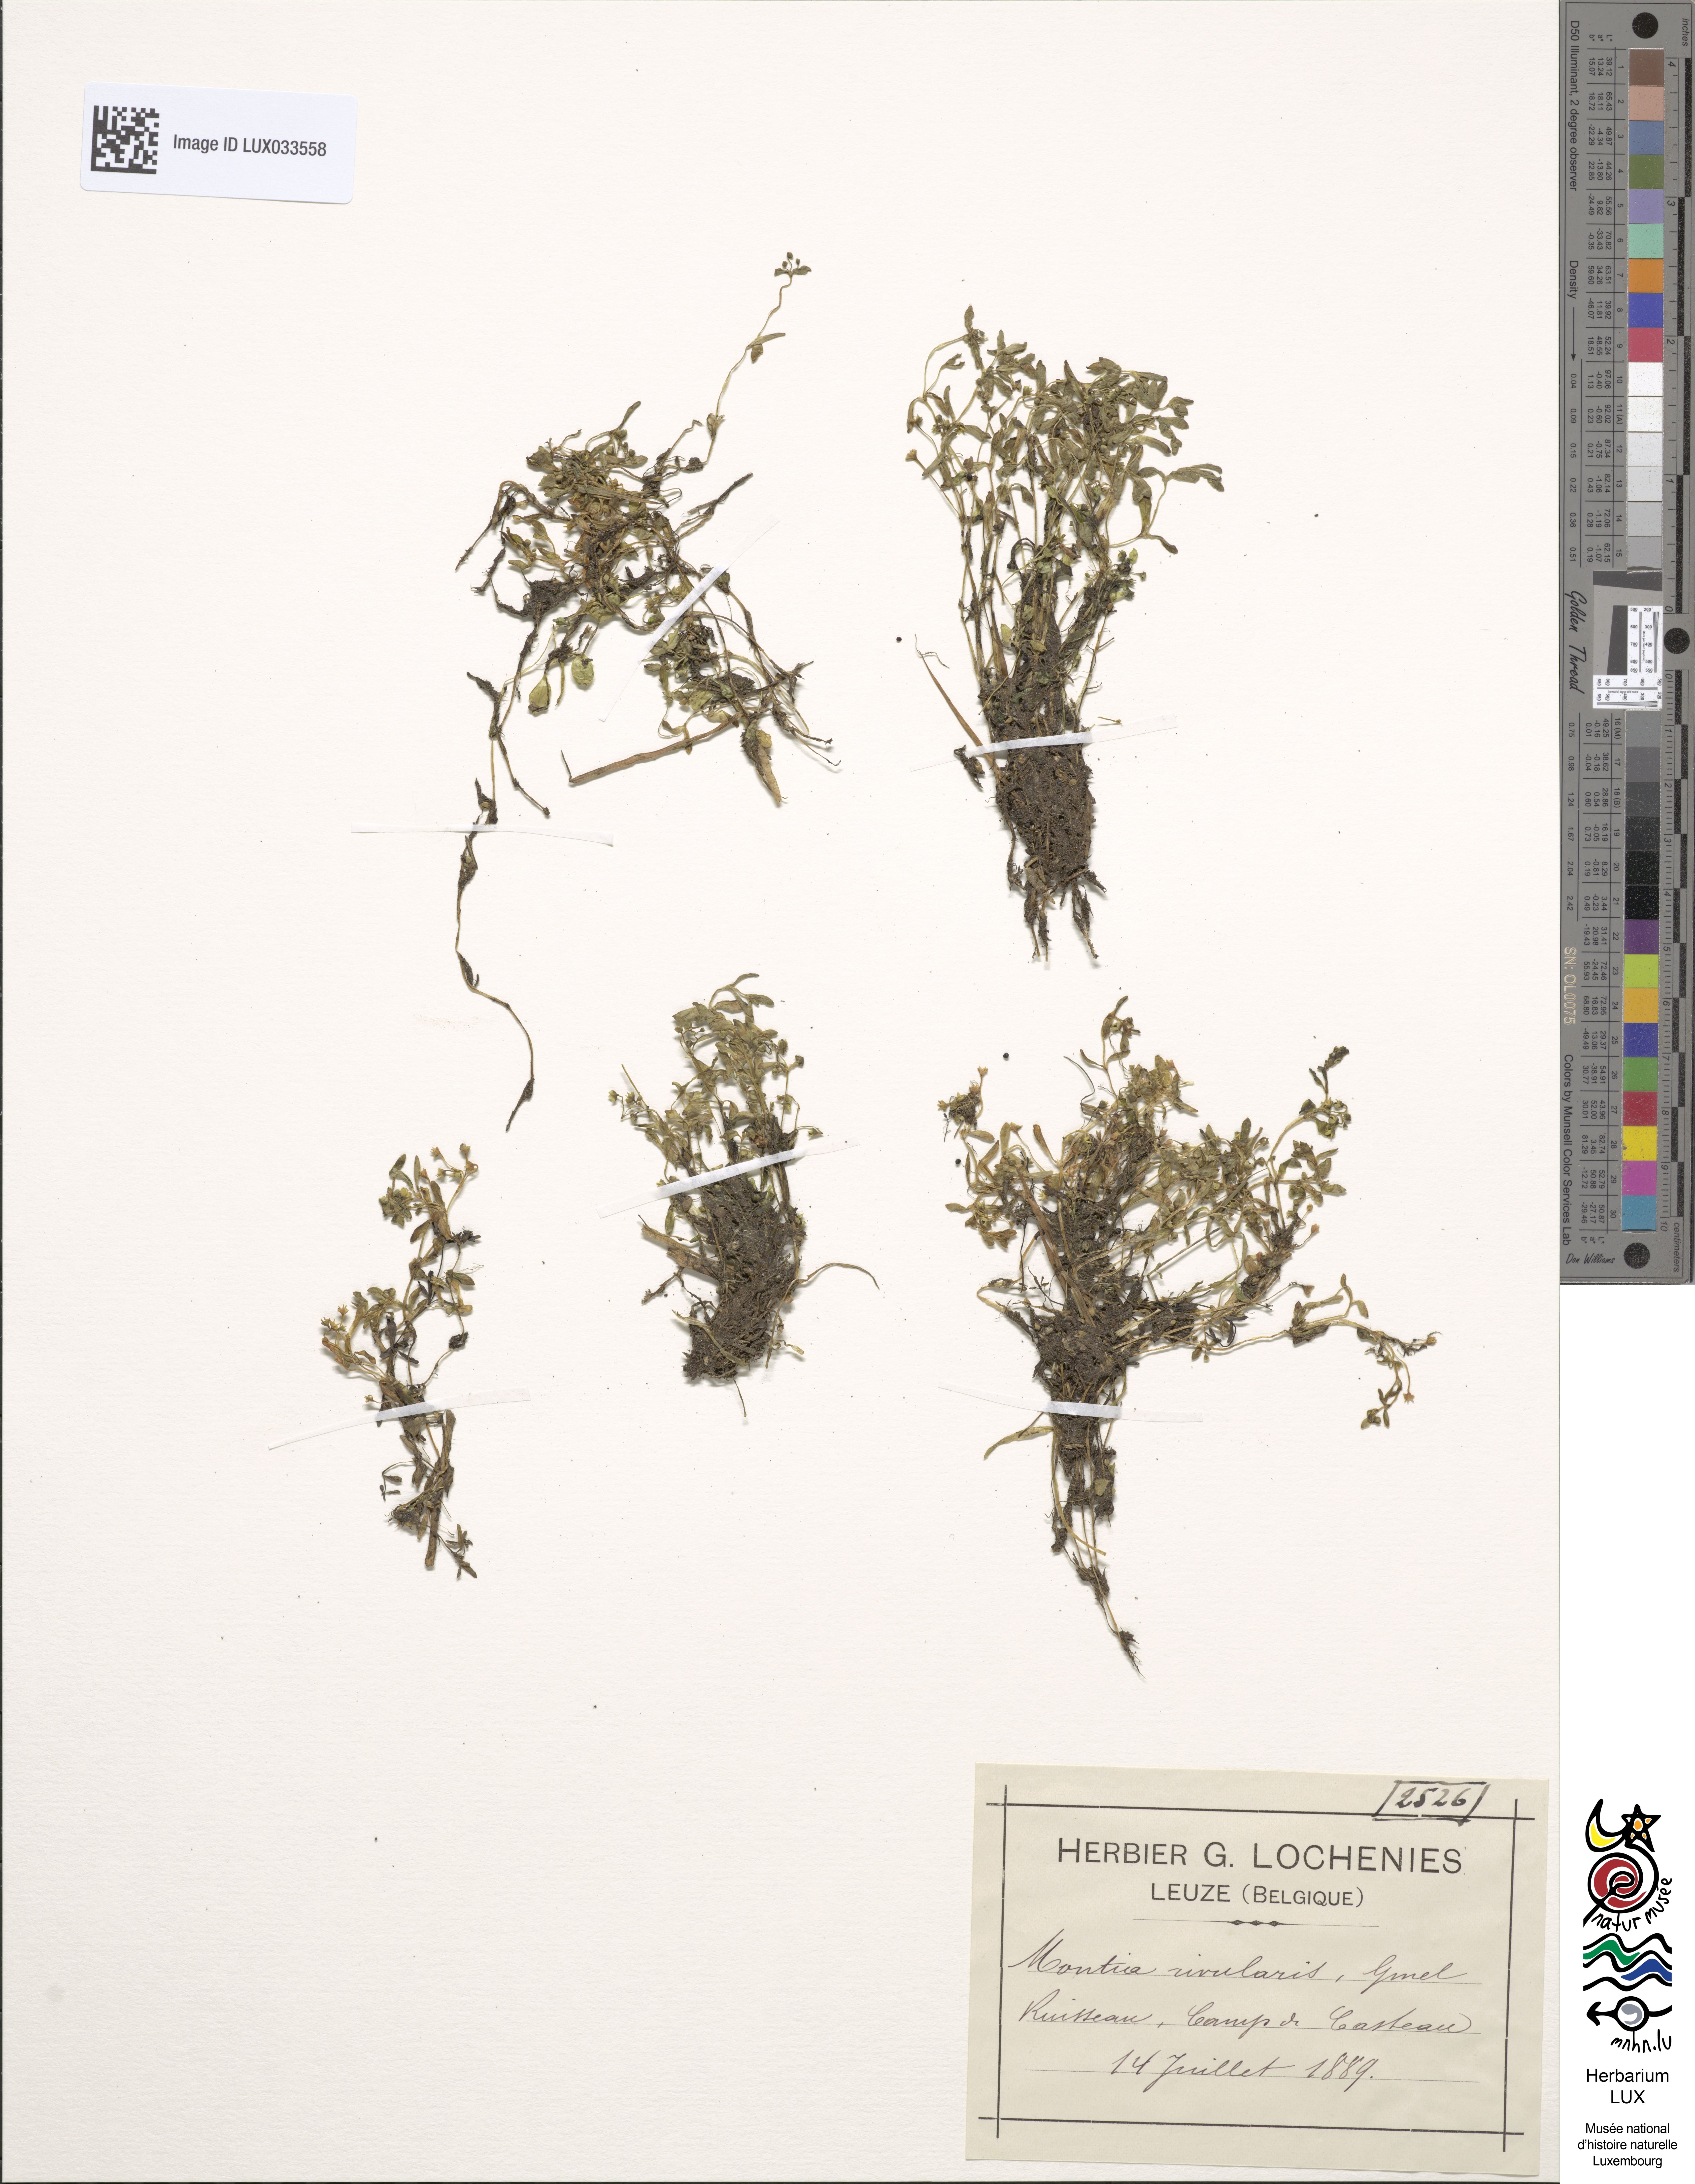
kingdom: Plantae
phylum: Tracheophyta
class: Magnoliopsida
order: Caryophyllales
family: Montiaceae
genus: Montia
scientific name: Montia fontana
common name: Blinks
